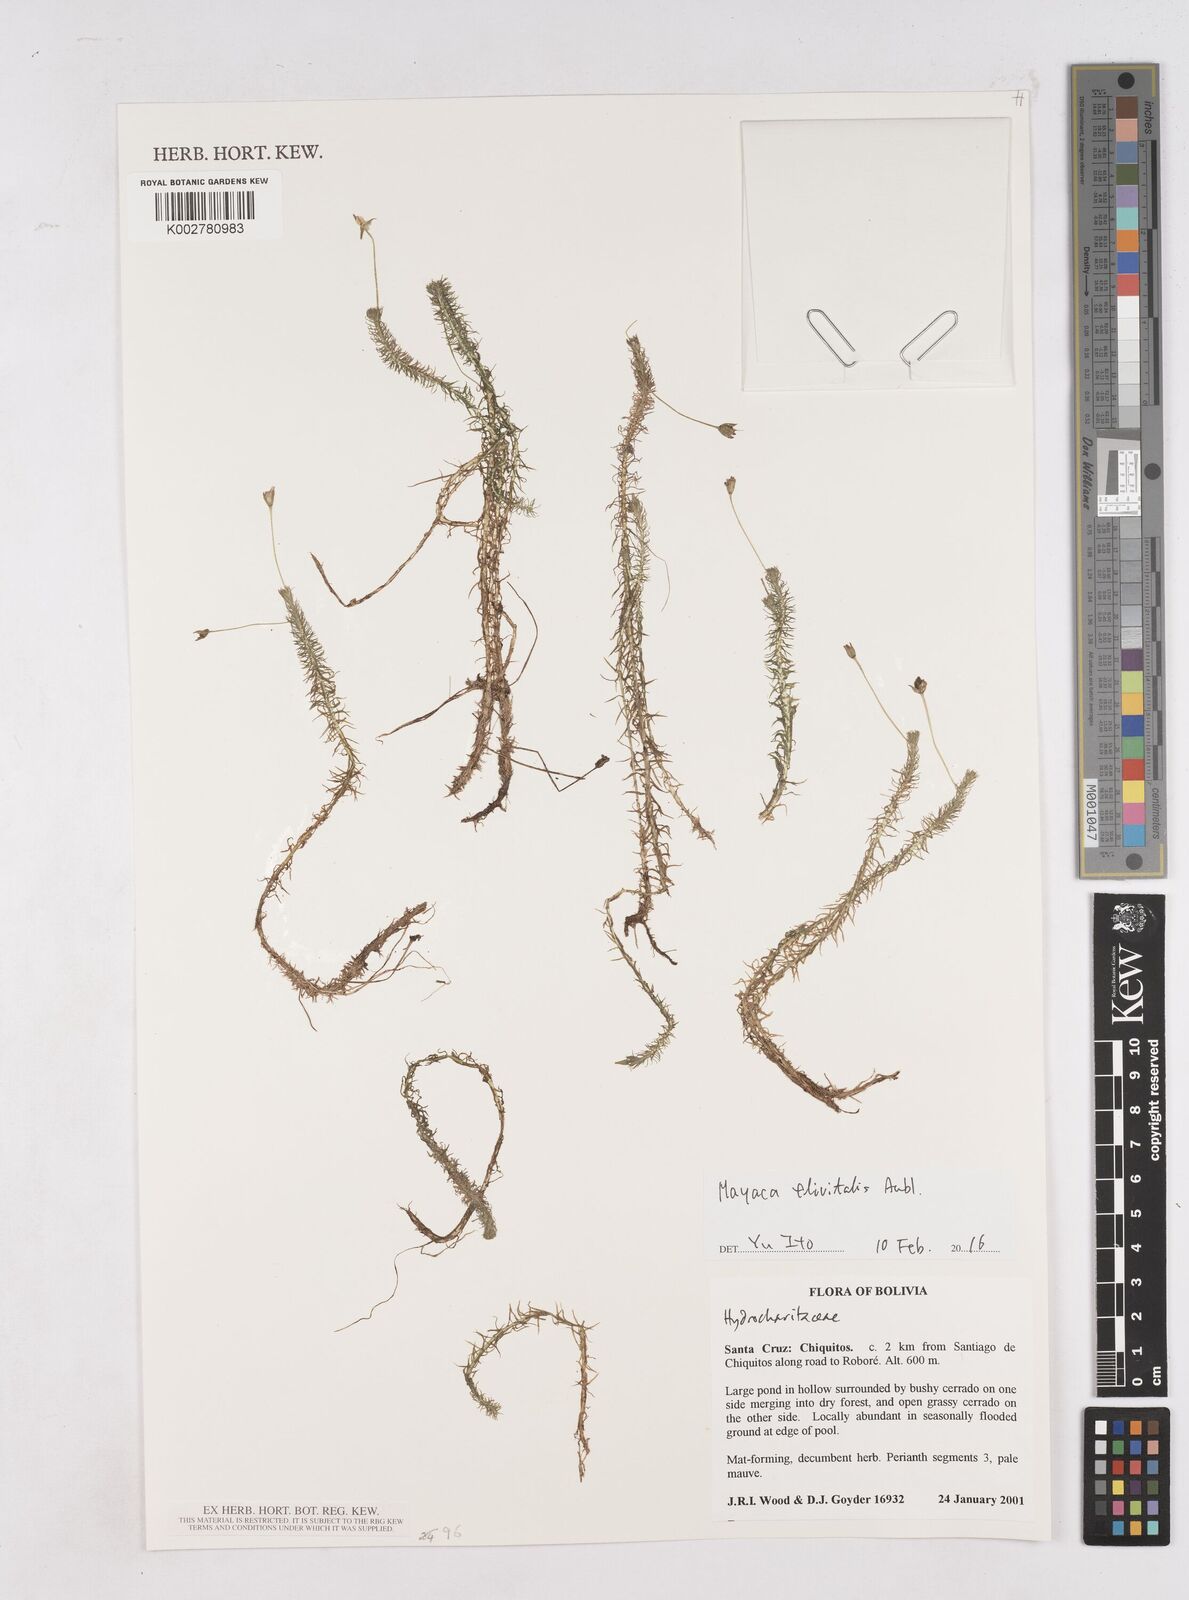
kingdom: Plantae
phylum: Tracheophyta
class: Liliopsida
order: Poales
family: Mayacaceae
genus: Mayaca
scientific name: Mayaca fluviatilis
